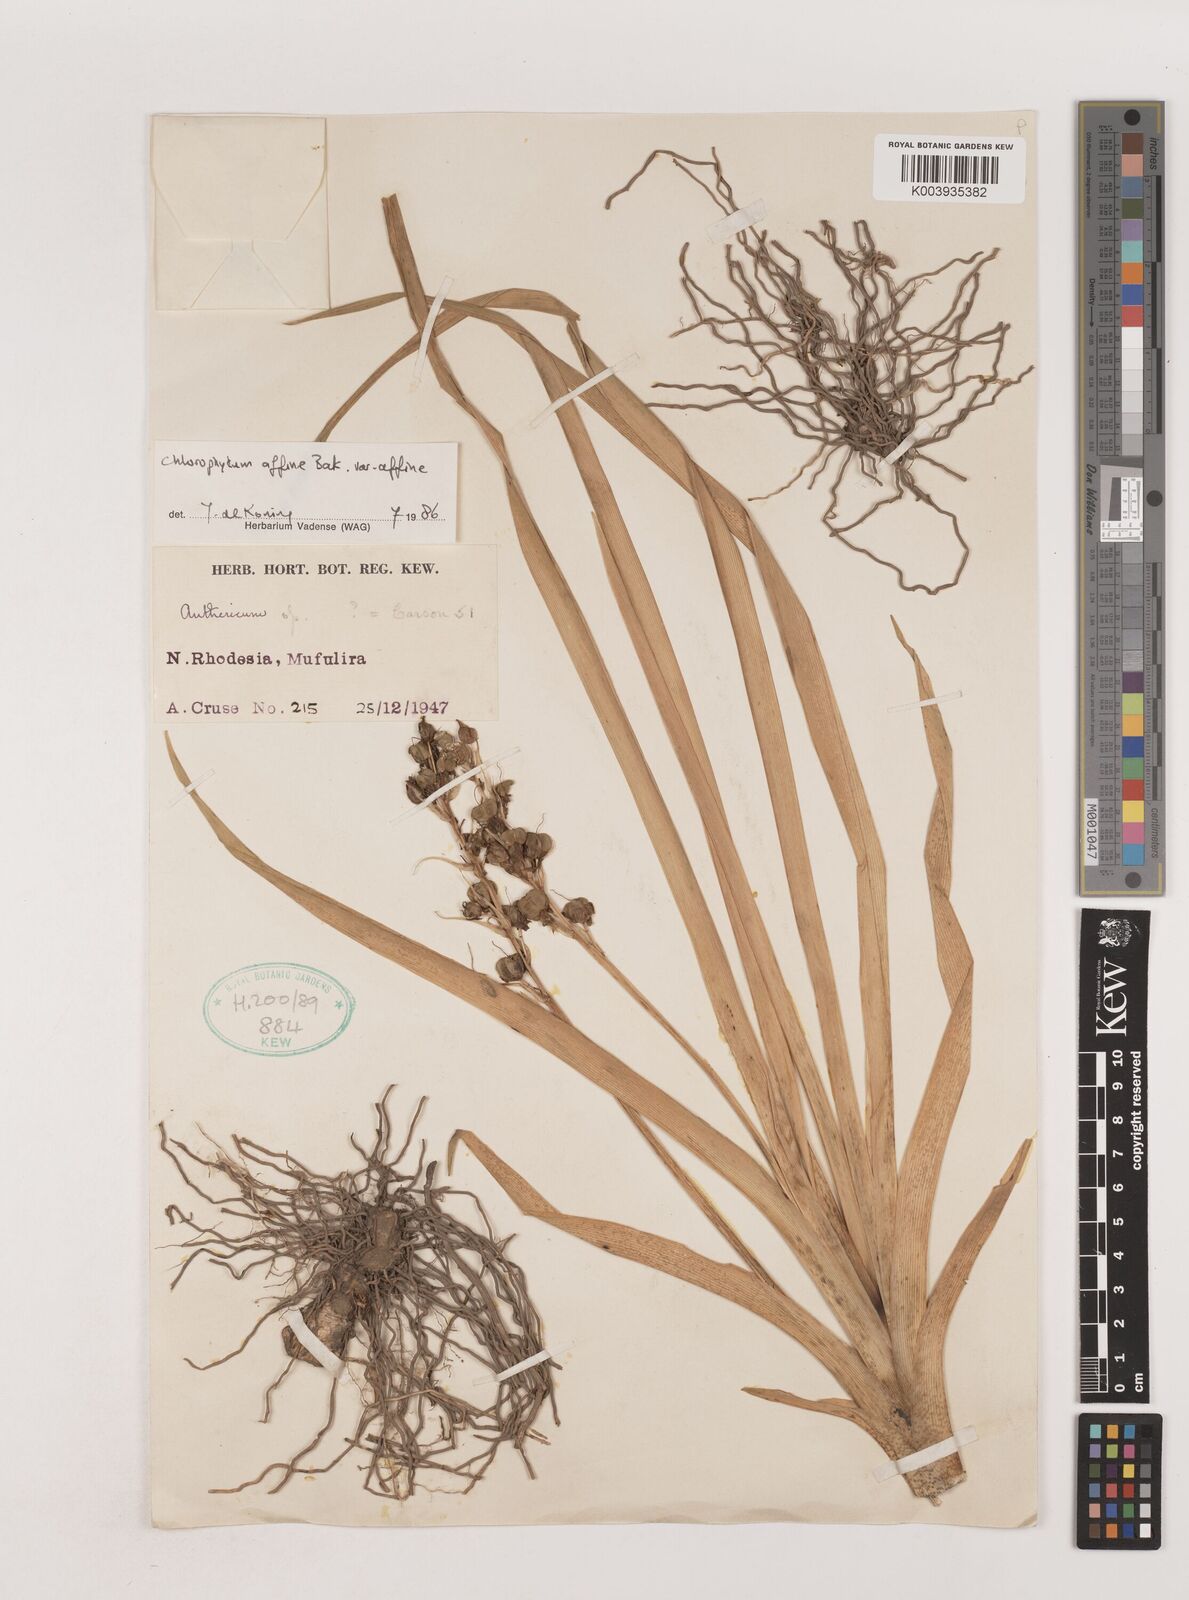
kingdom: Plantae
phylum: Tracheophyta
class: Liliopsida
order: Asparagales
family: Asparagaceae
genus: Chlorophytum
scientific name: Chlorophytum affine
